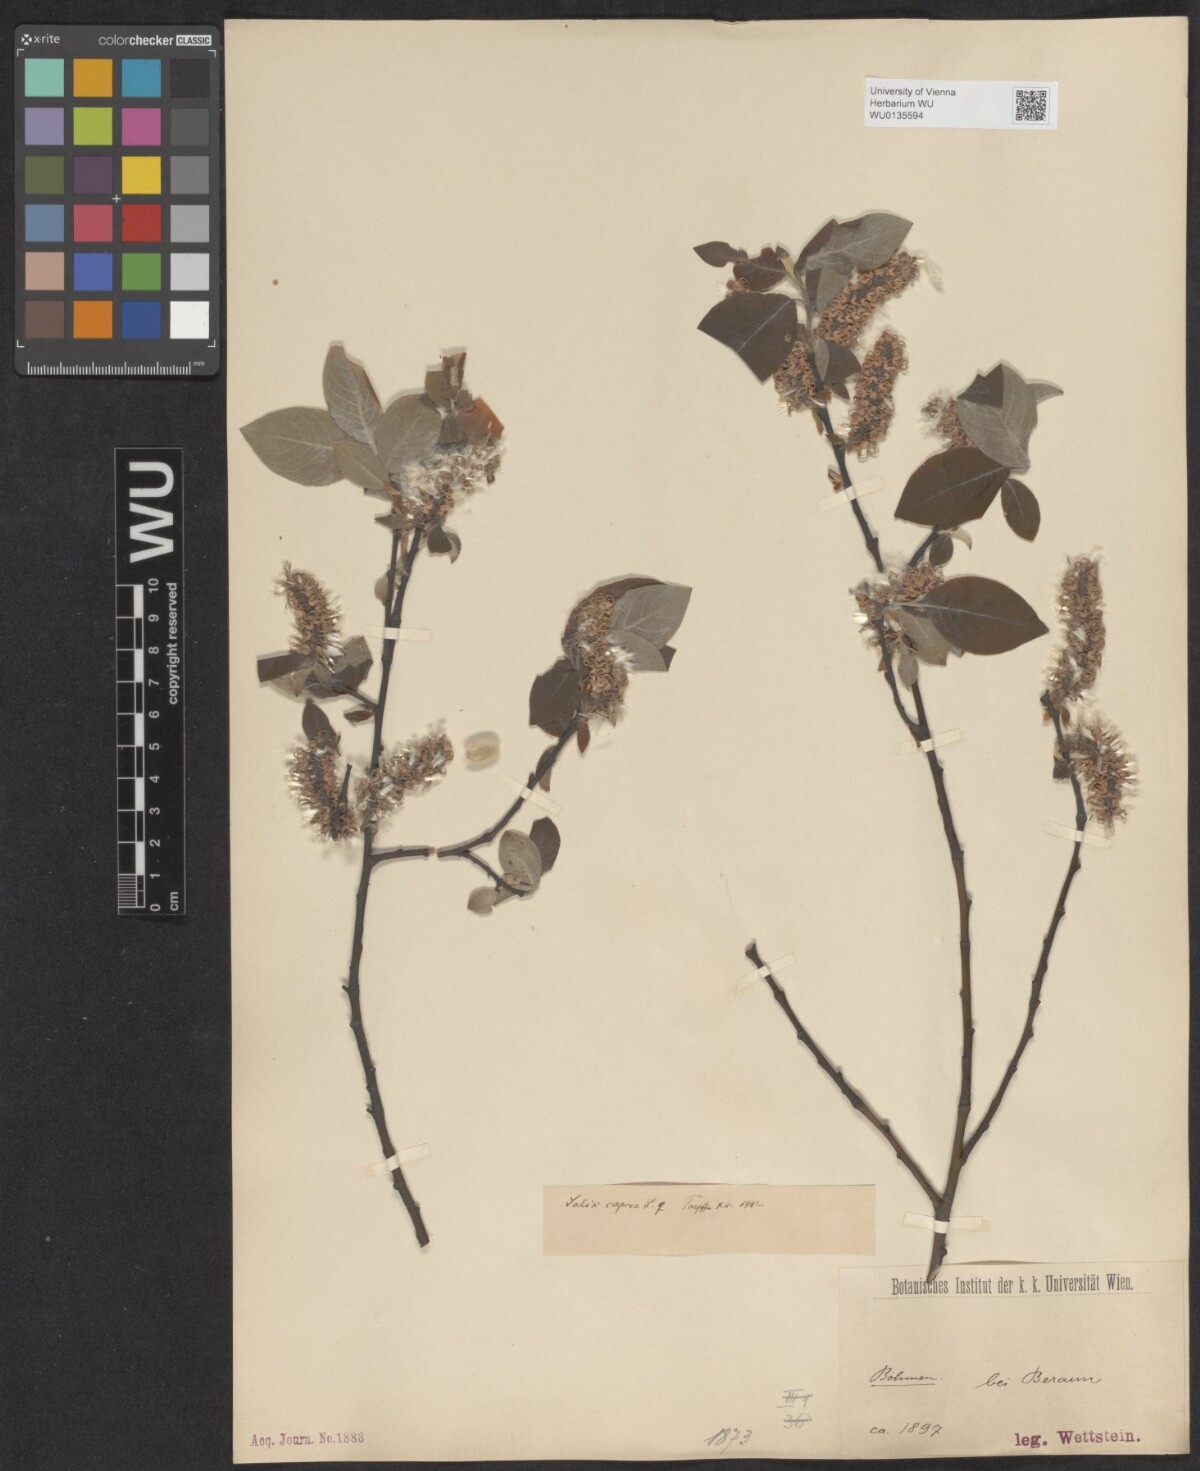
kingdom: Plantae
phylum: Tracheophyta
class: Magnoliopsida
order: Malpighiales
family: Salicaceae
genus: Salix
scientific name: Salix caprea
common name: Goat willow
